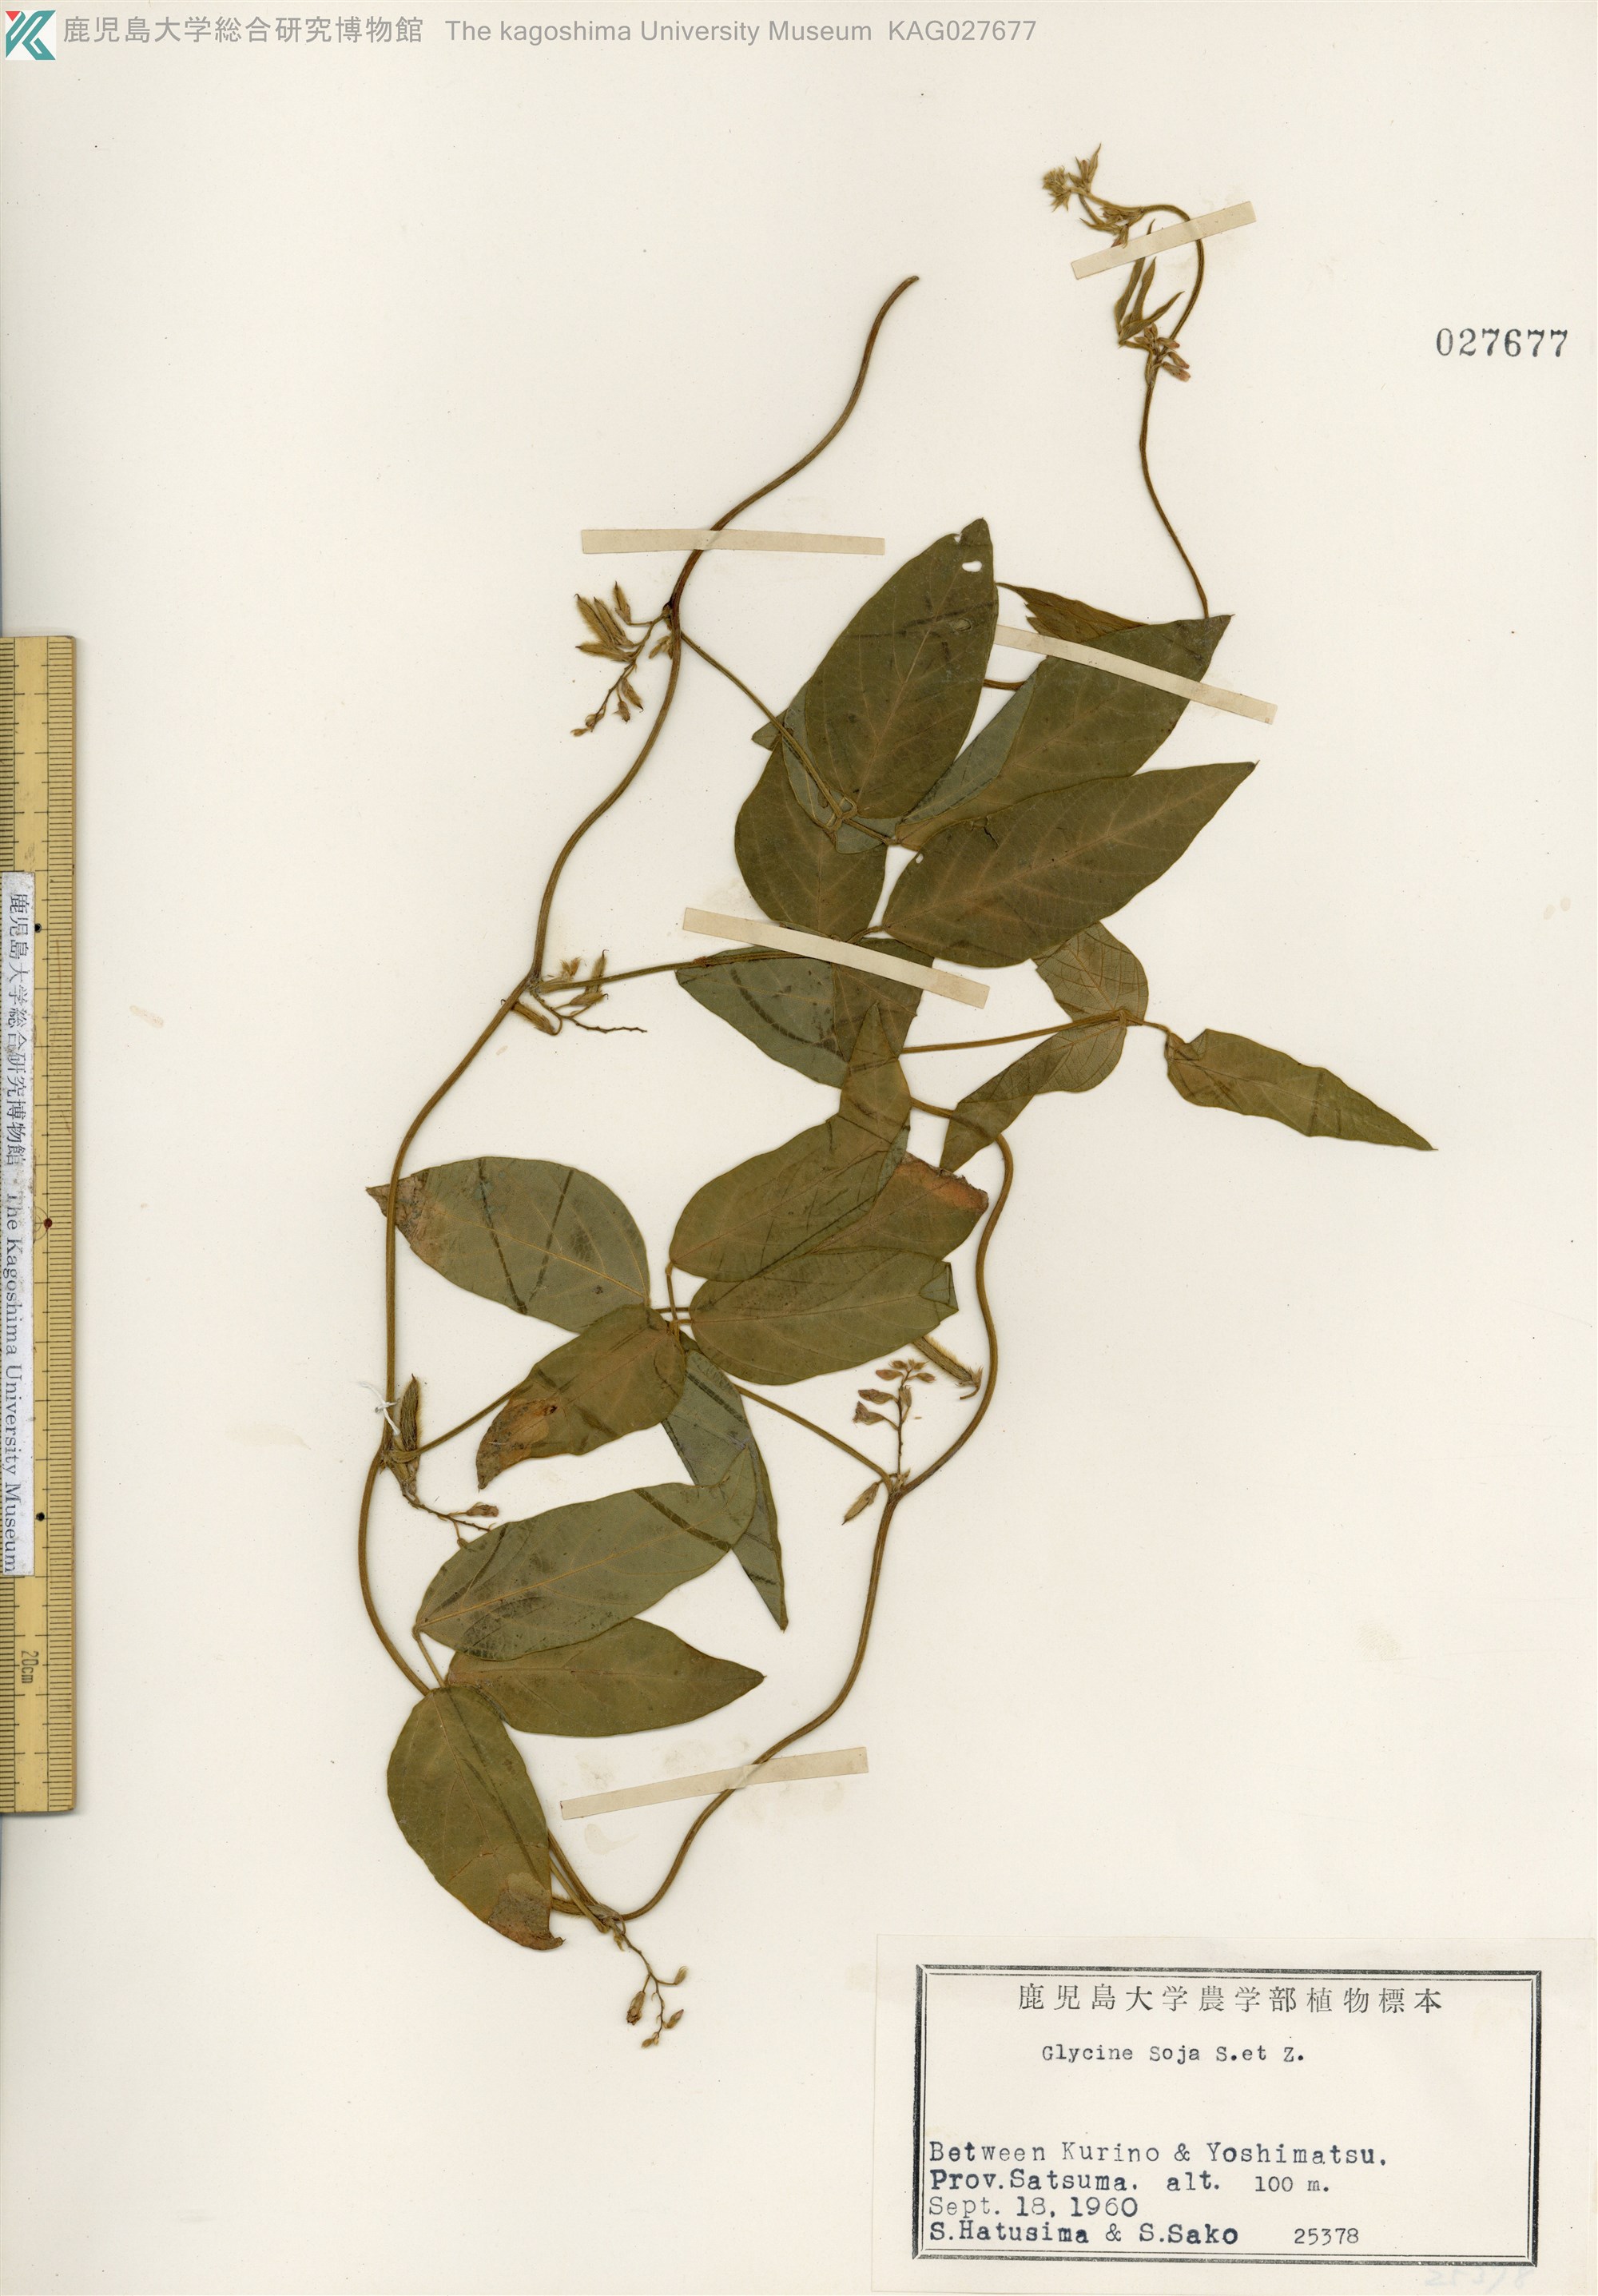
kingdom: Plantae
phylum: Tracheophyta
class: Magnoliopsida
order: Fabales
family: Fabaceae
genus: Glycine
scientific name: Glycine max
